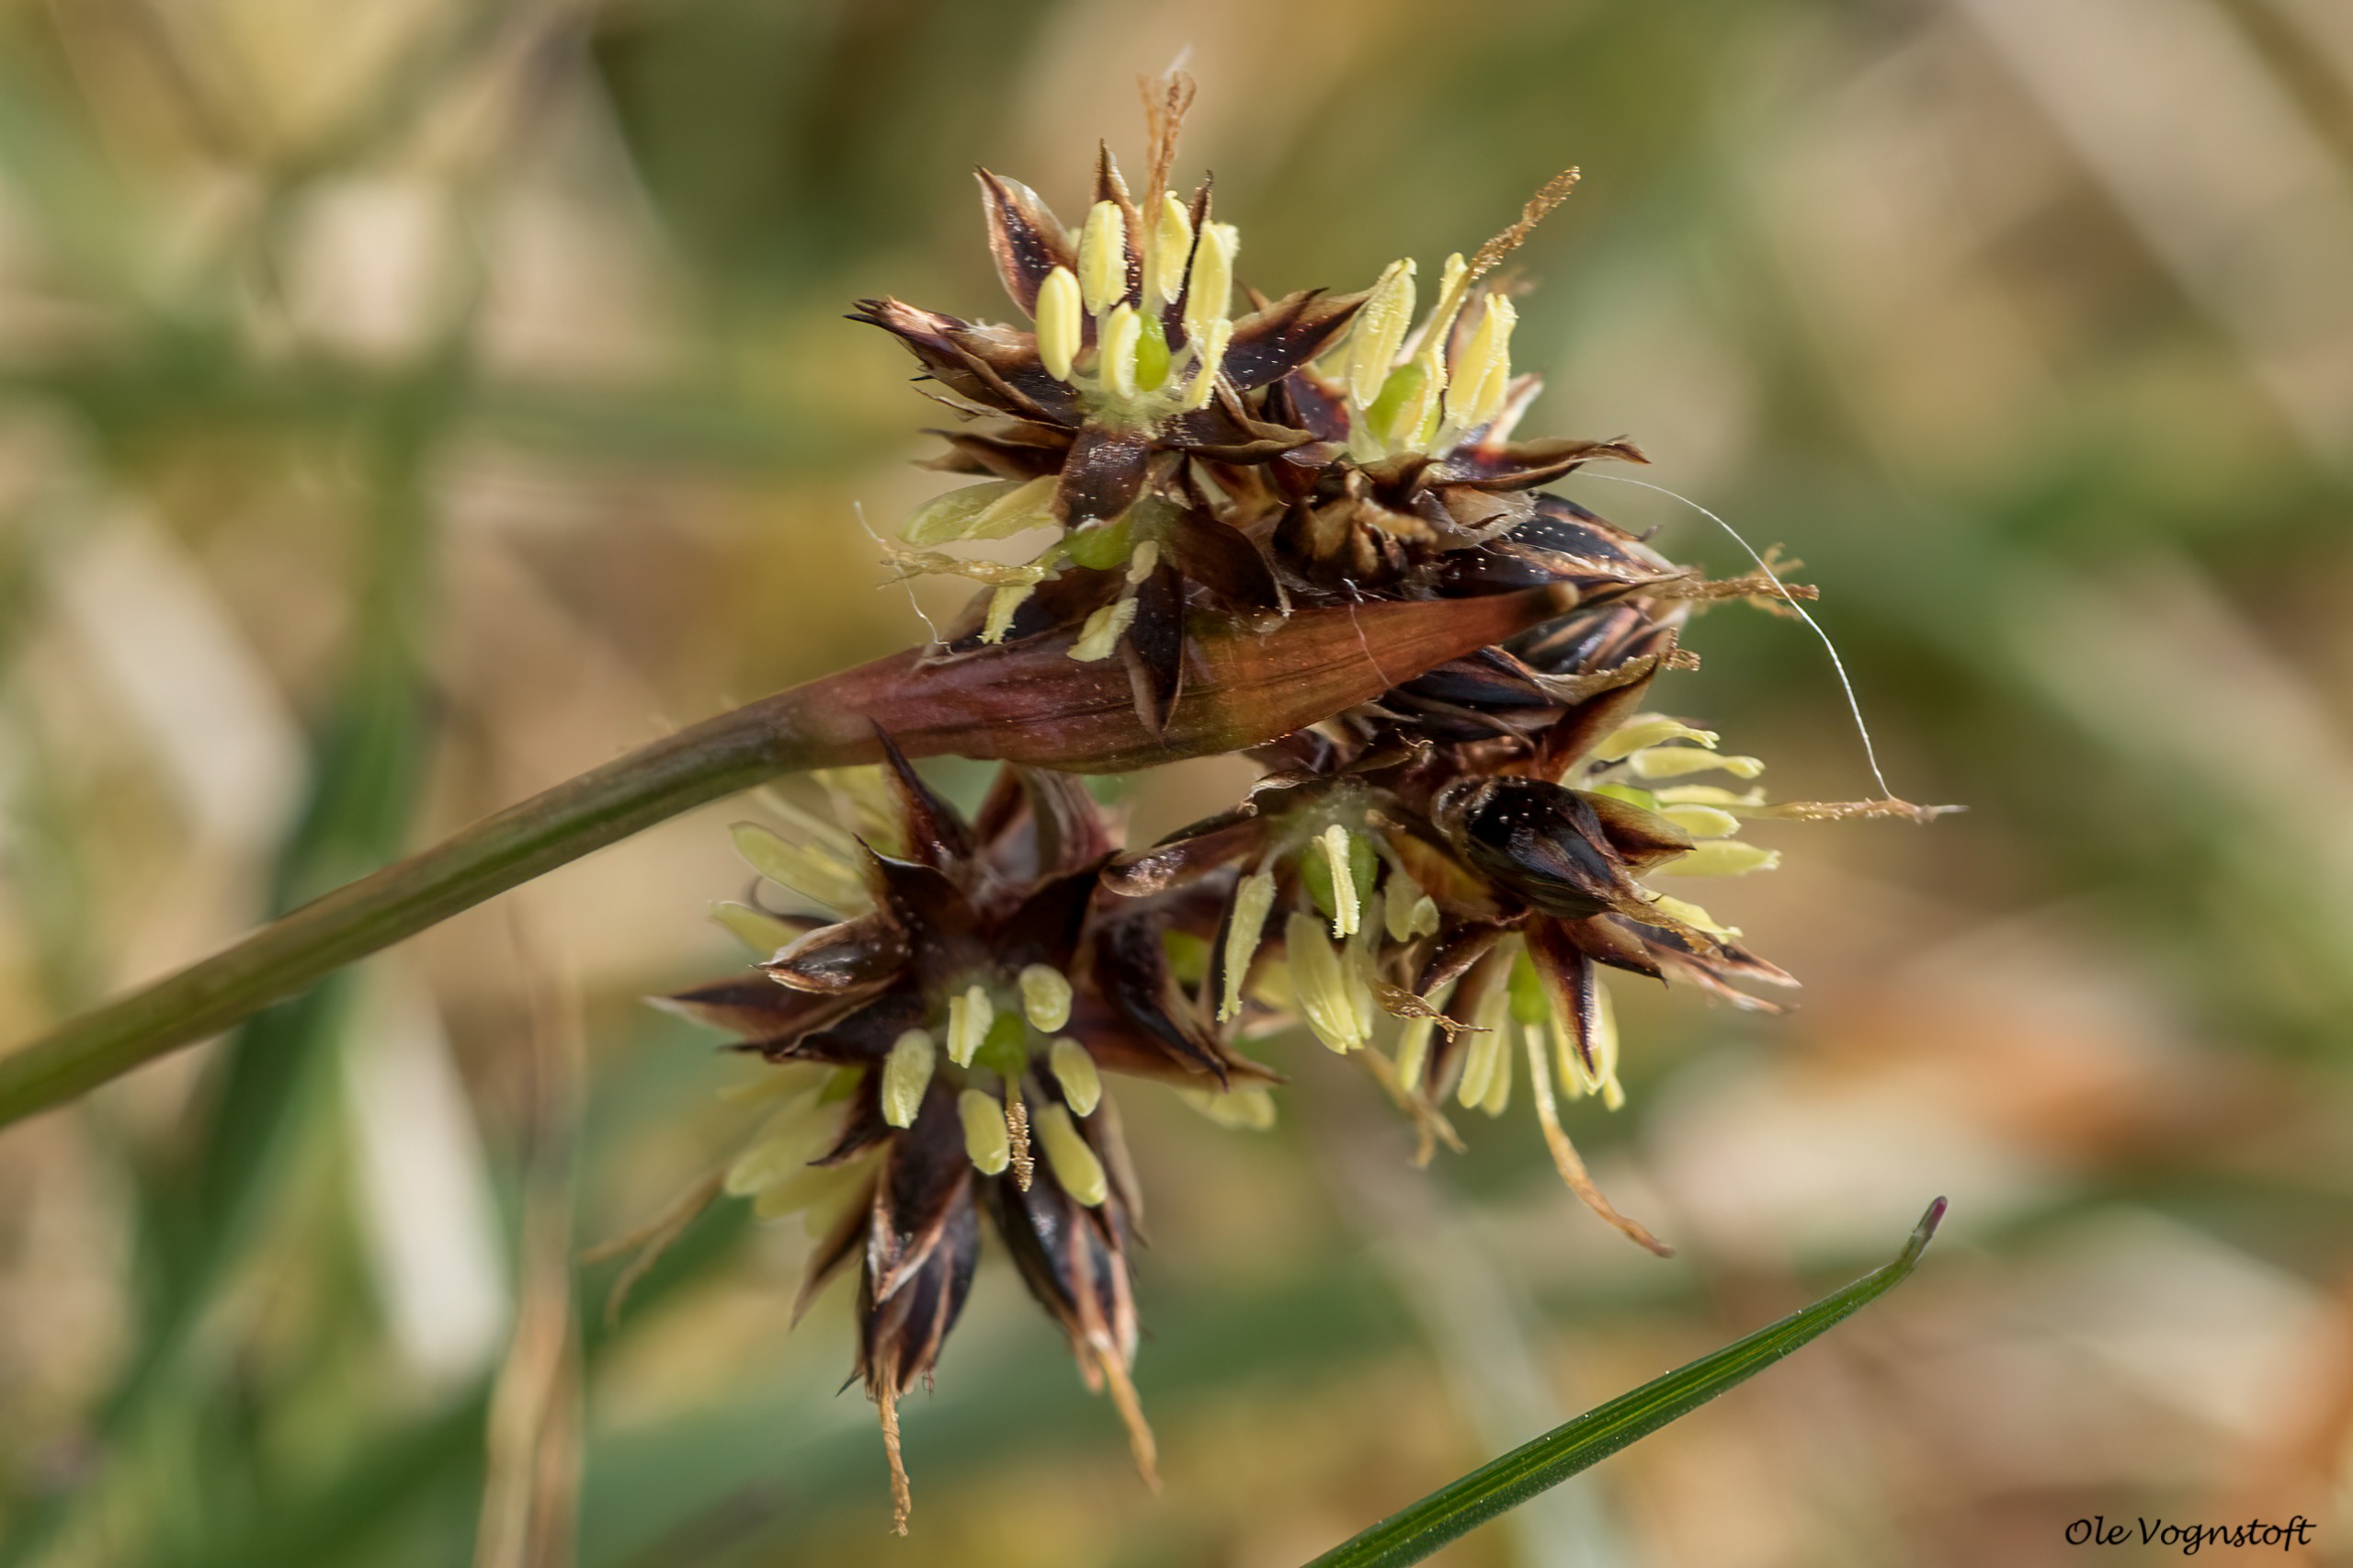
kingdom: Plantae
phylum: Tracheophyta
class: Liliopsida
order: Poales
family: Juncaceae
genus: Luzula
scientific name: Luzula campestris
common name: Mark-frytle
